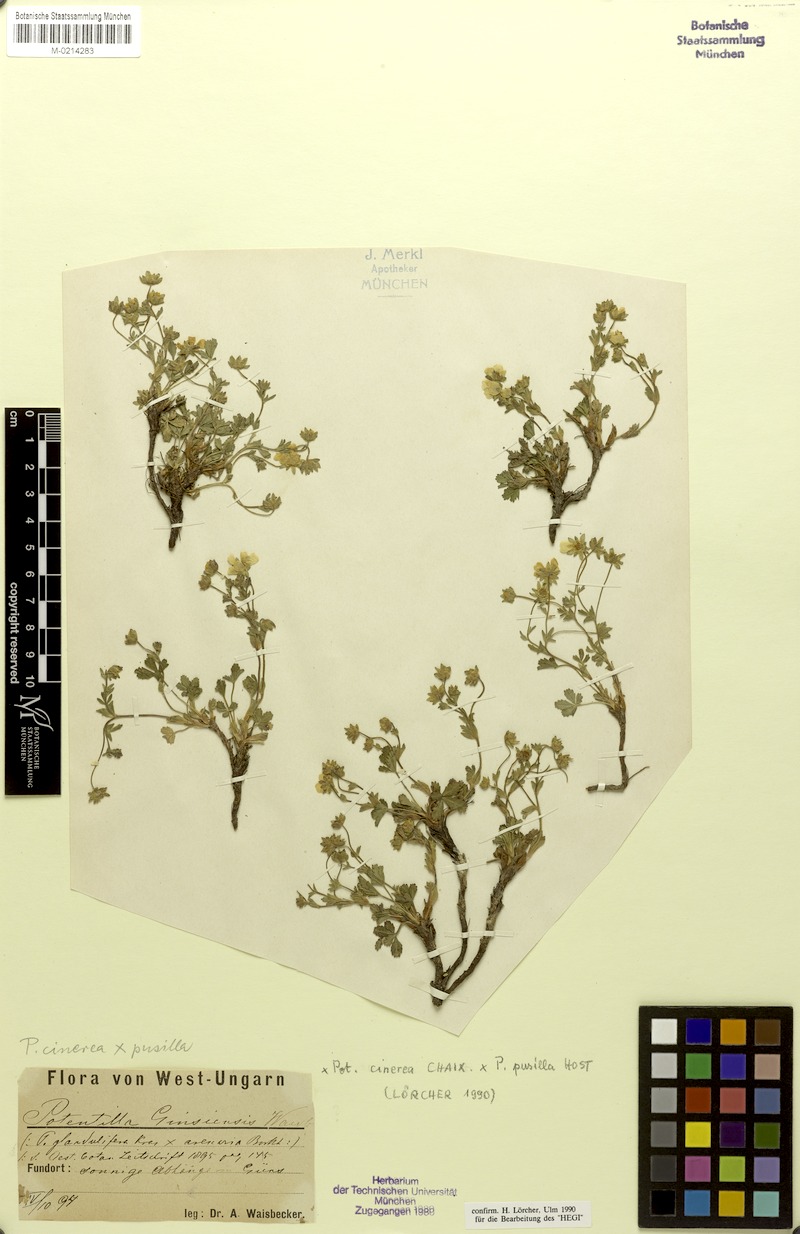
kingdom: Plantae
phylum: Tracheophyta
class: Magnoliopsida
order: Rosales
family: Rosaceae
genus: Potentilla
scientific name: Potentilla cinerea
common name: Ashy cinquefoil
